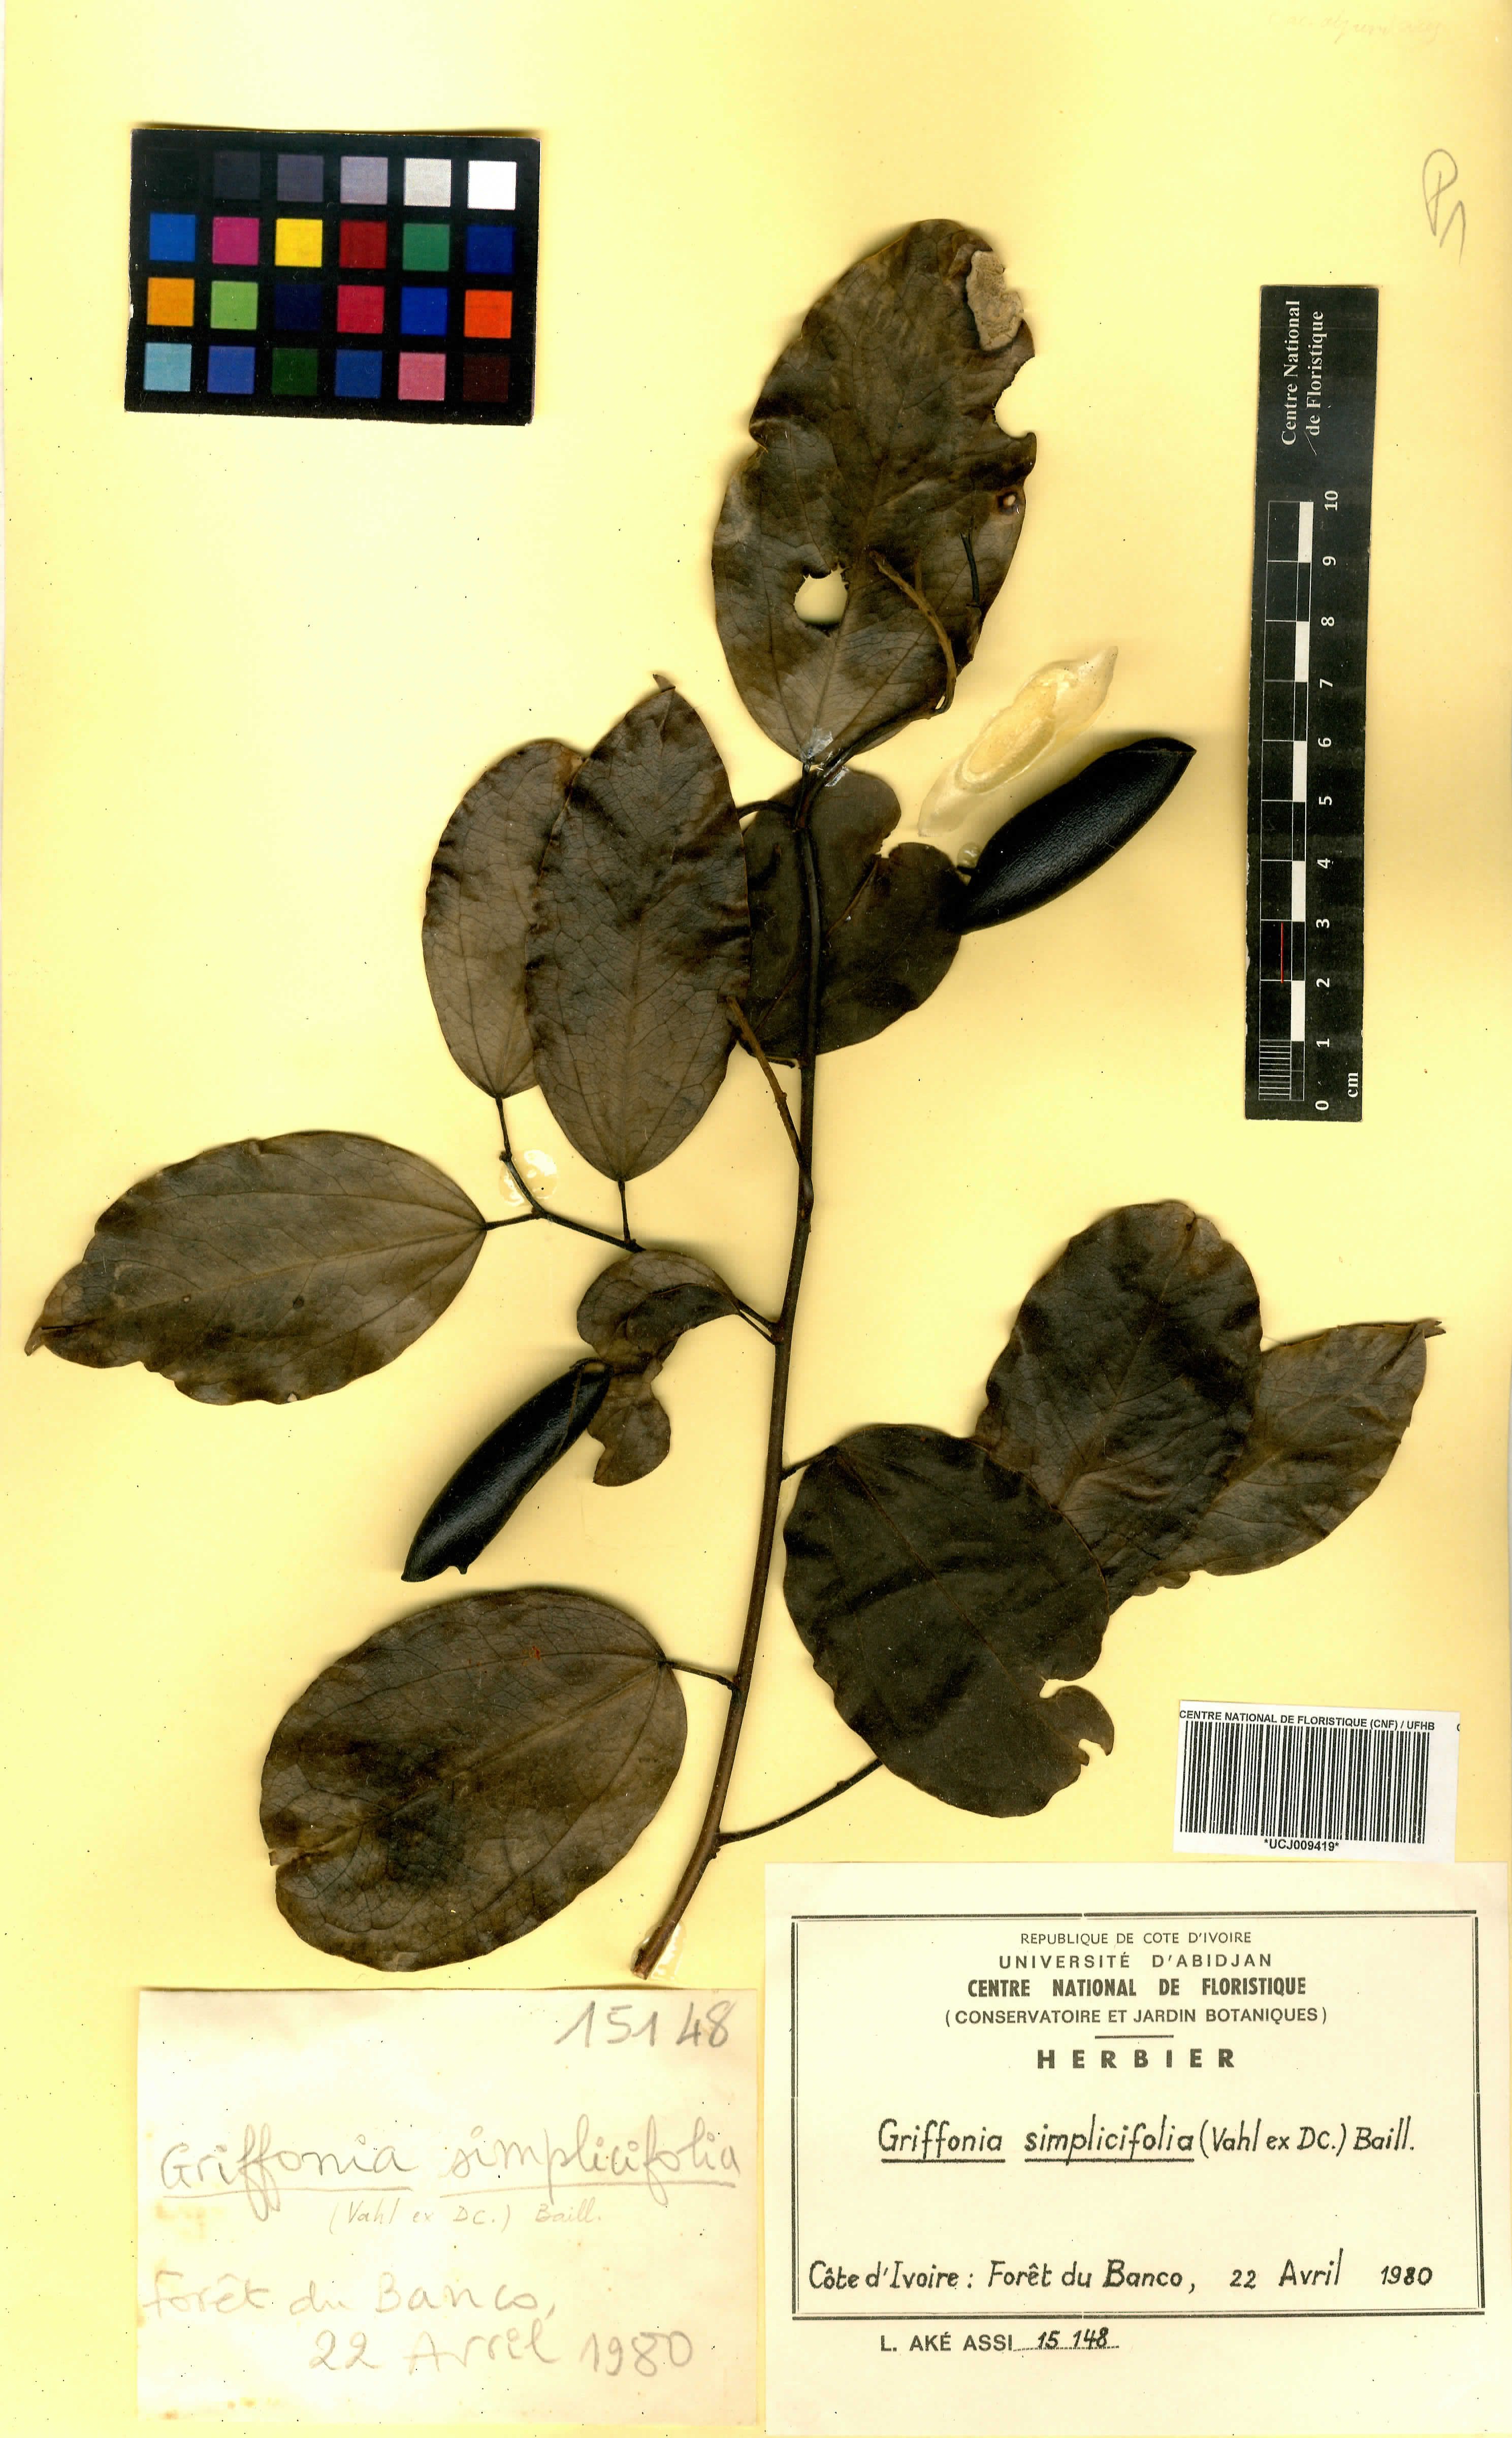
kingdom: Plantae
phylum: Tracheophyta
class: Magnoliopsida
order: Fabales
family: Fabaceae
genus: Griffonia
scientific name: Griffonia simplicifolia
